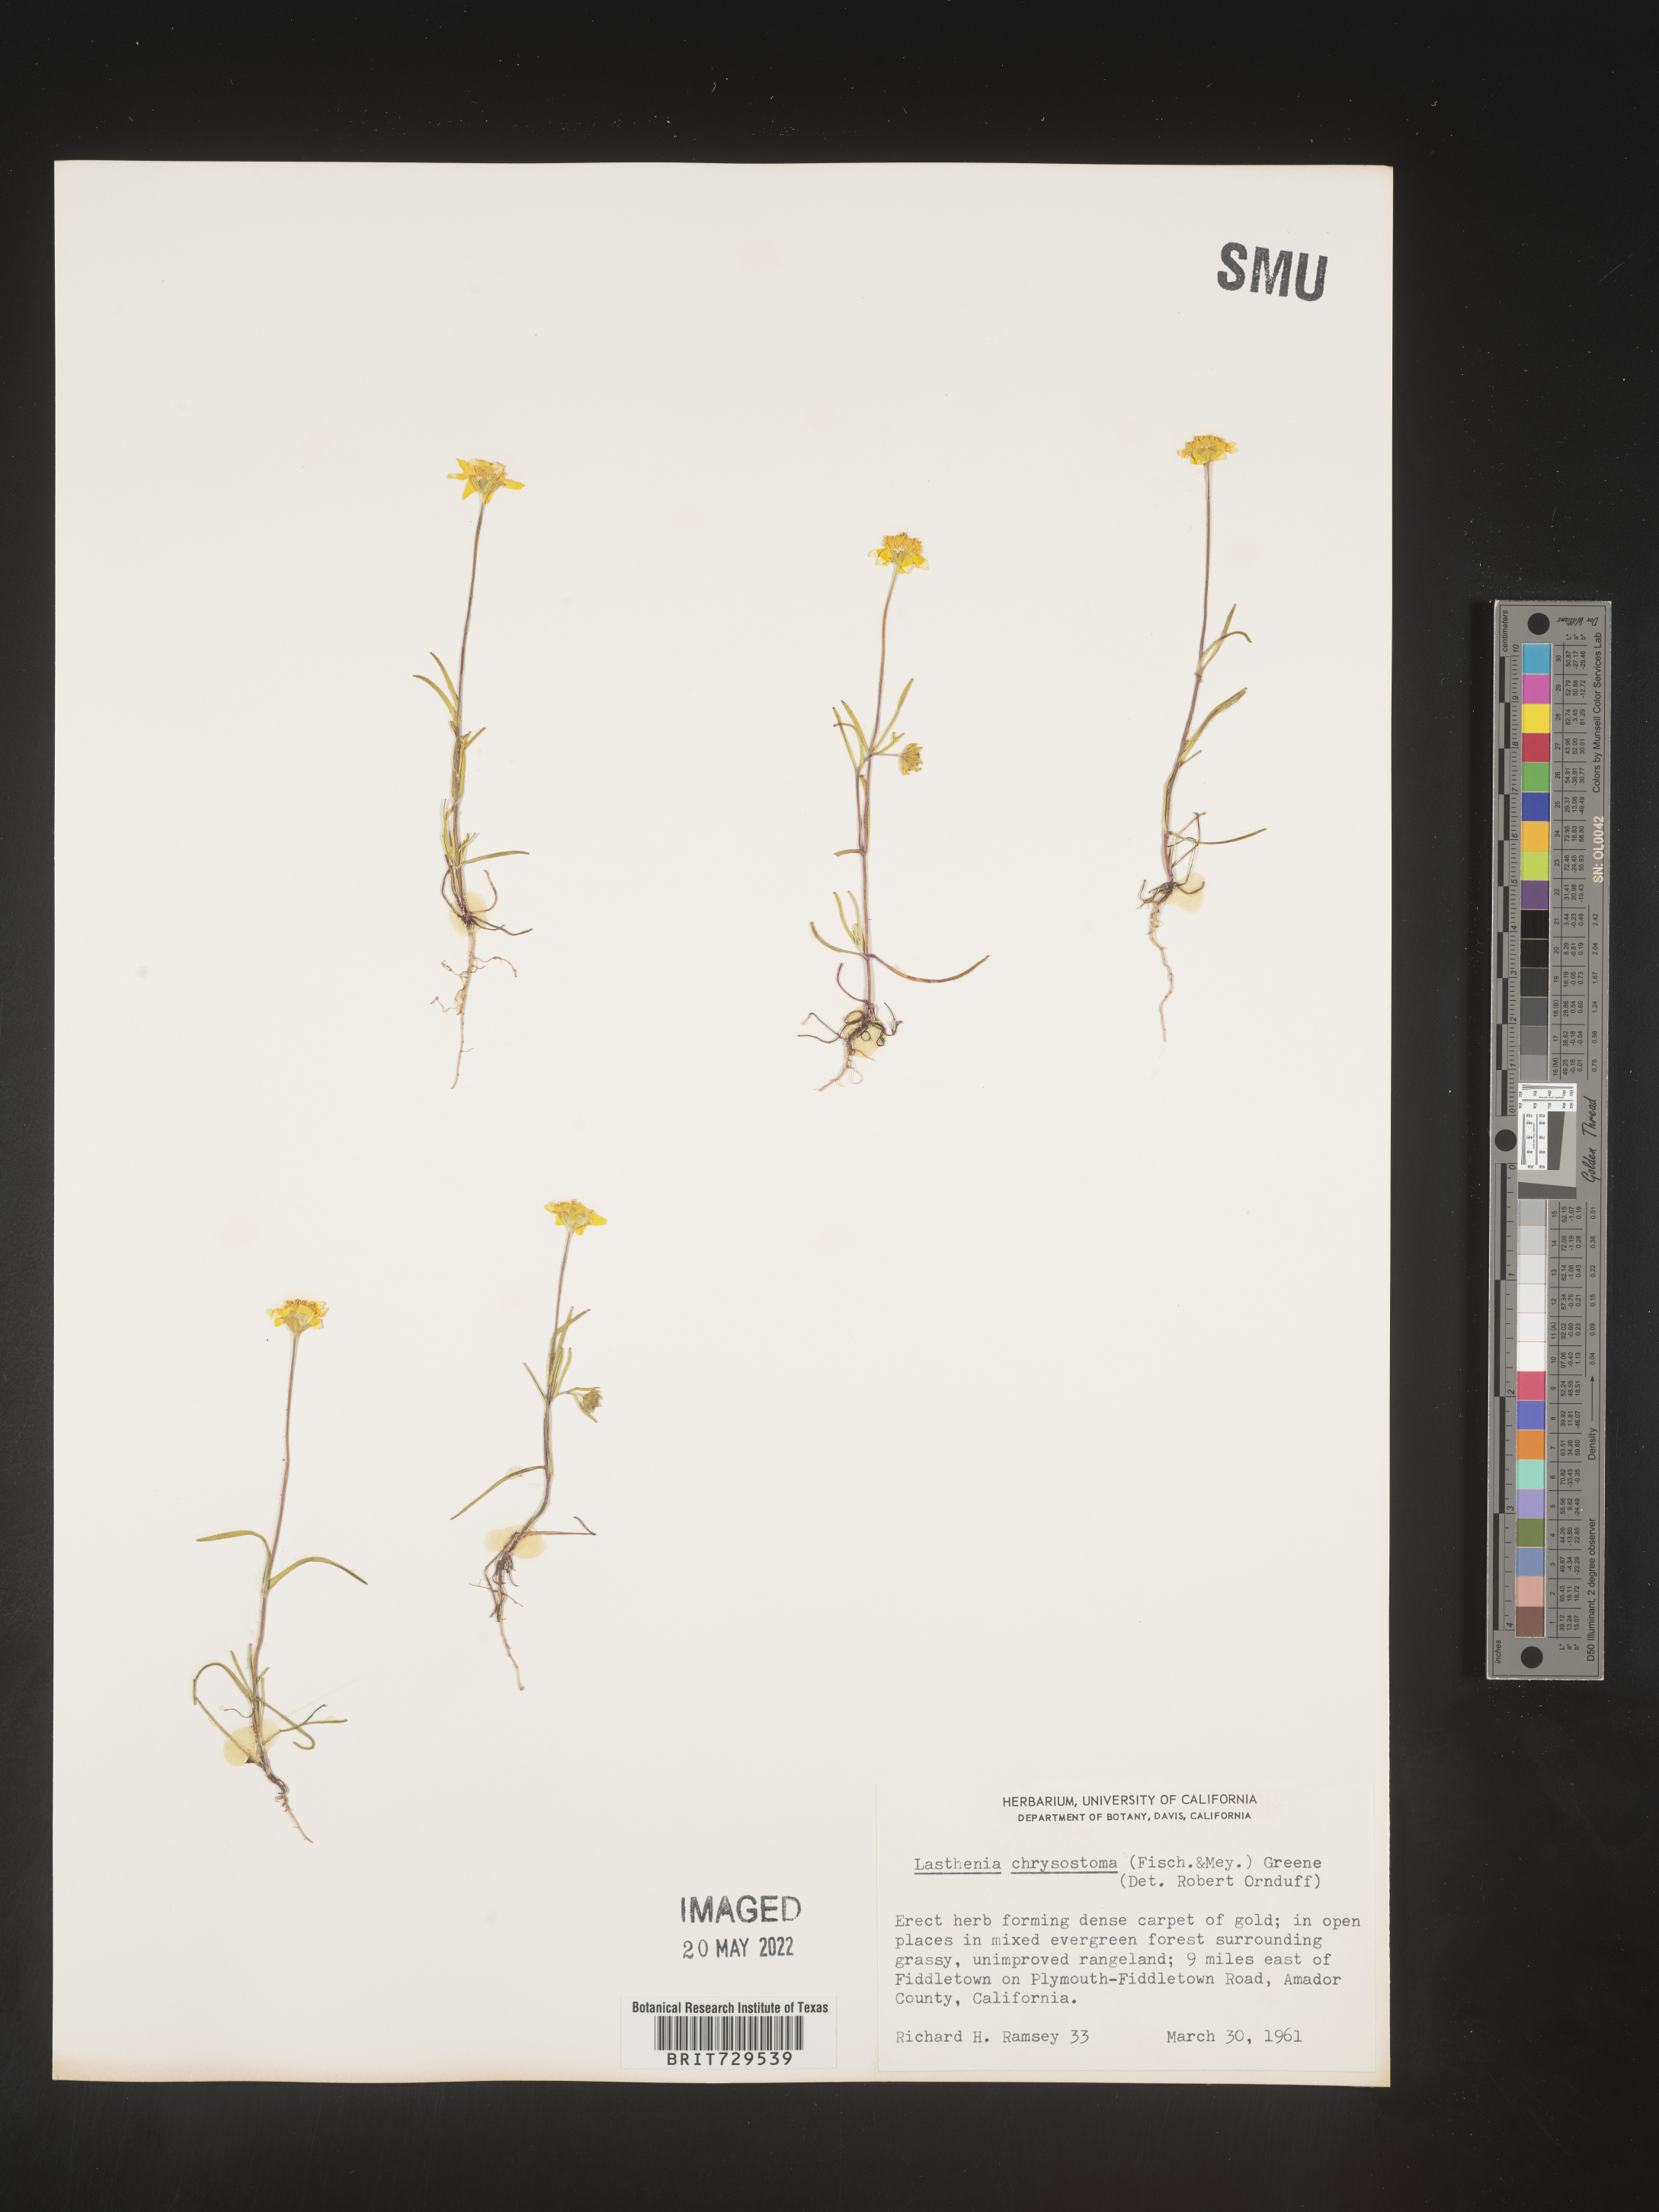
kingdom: Plantae
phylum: Tracheophyta
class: Magnoliopsida
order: Asterales
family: Asteraceae
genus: Lasthenia
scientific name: Lasthenia
